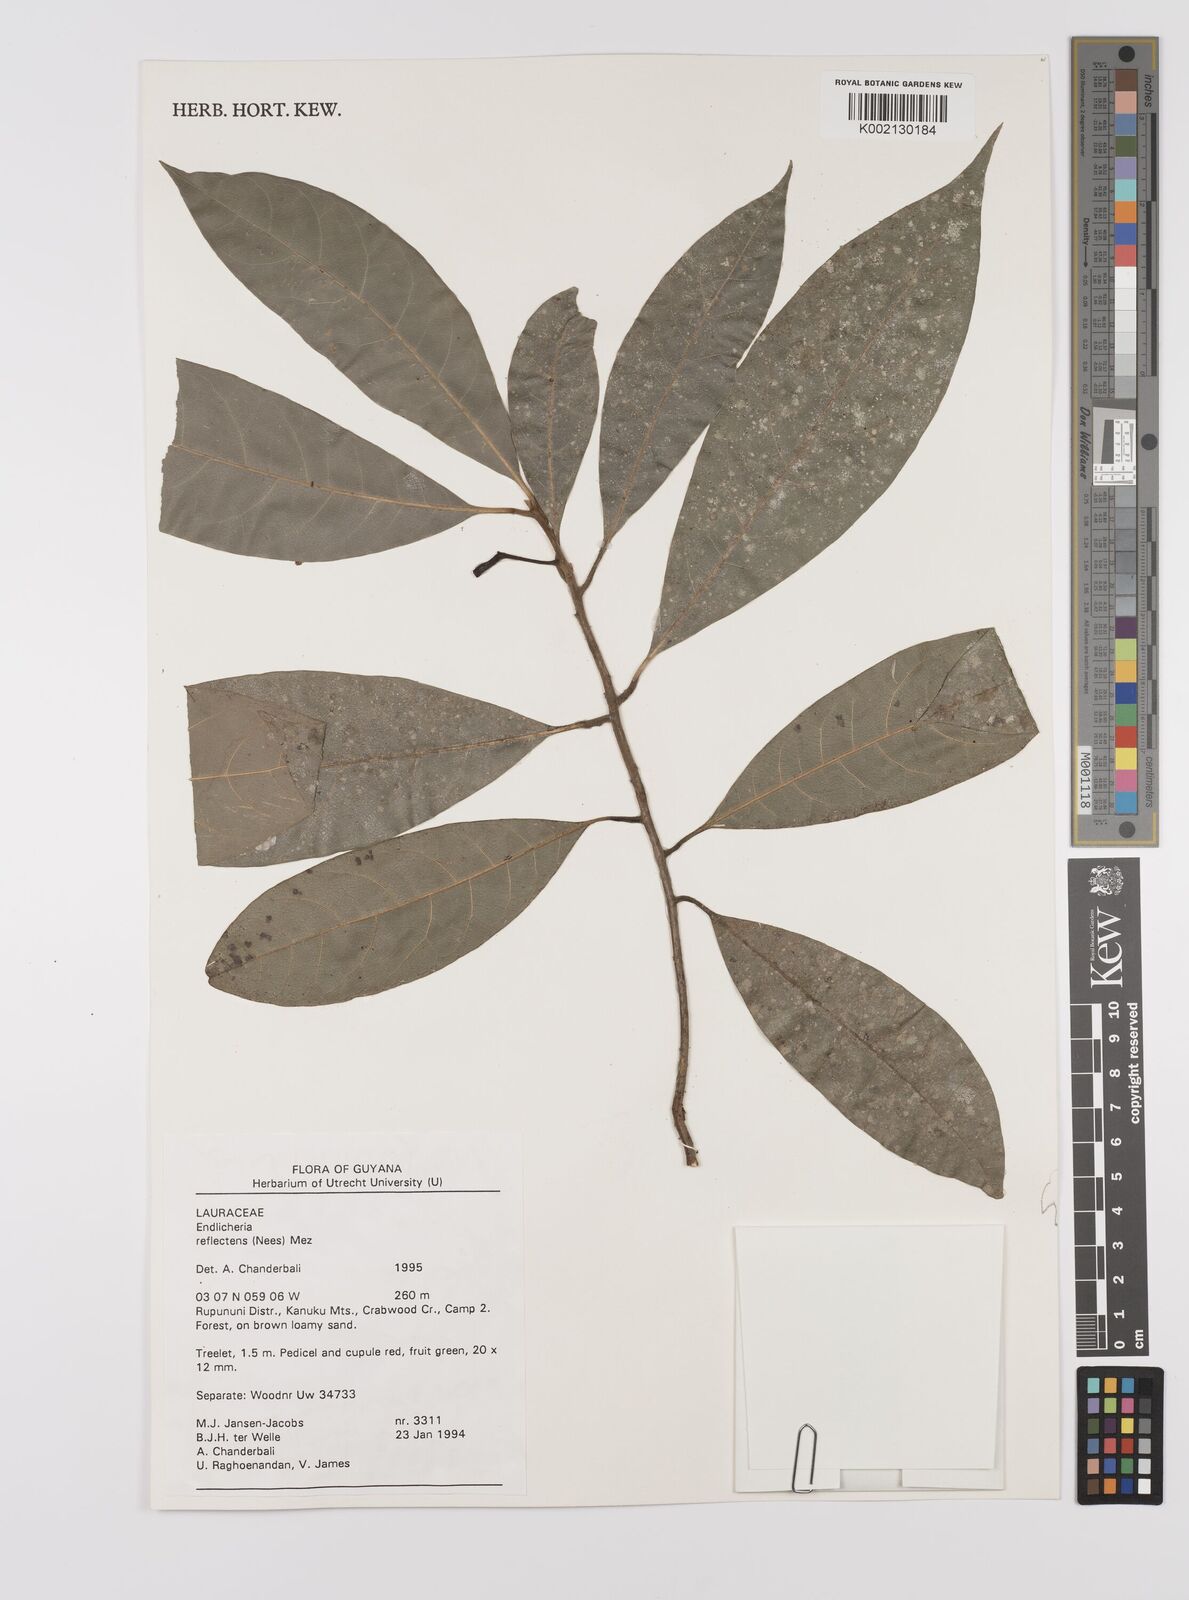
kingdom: Plantae
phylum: Tracheophyta
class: Magnoliopsida
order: Laurales
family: Lauraceae
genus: Endlicheria
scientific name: Endlicheria reflectens
